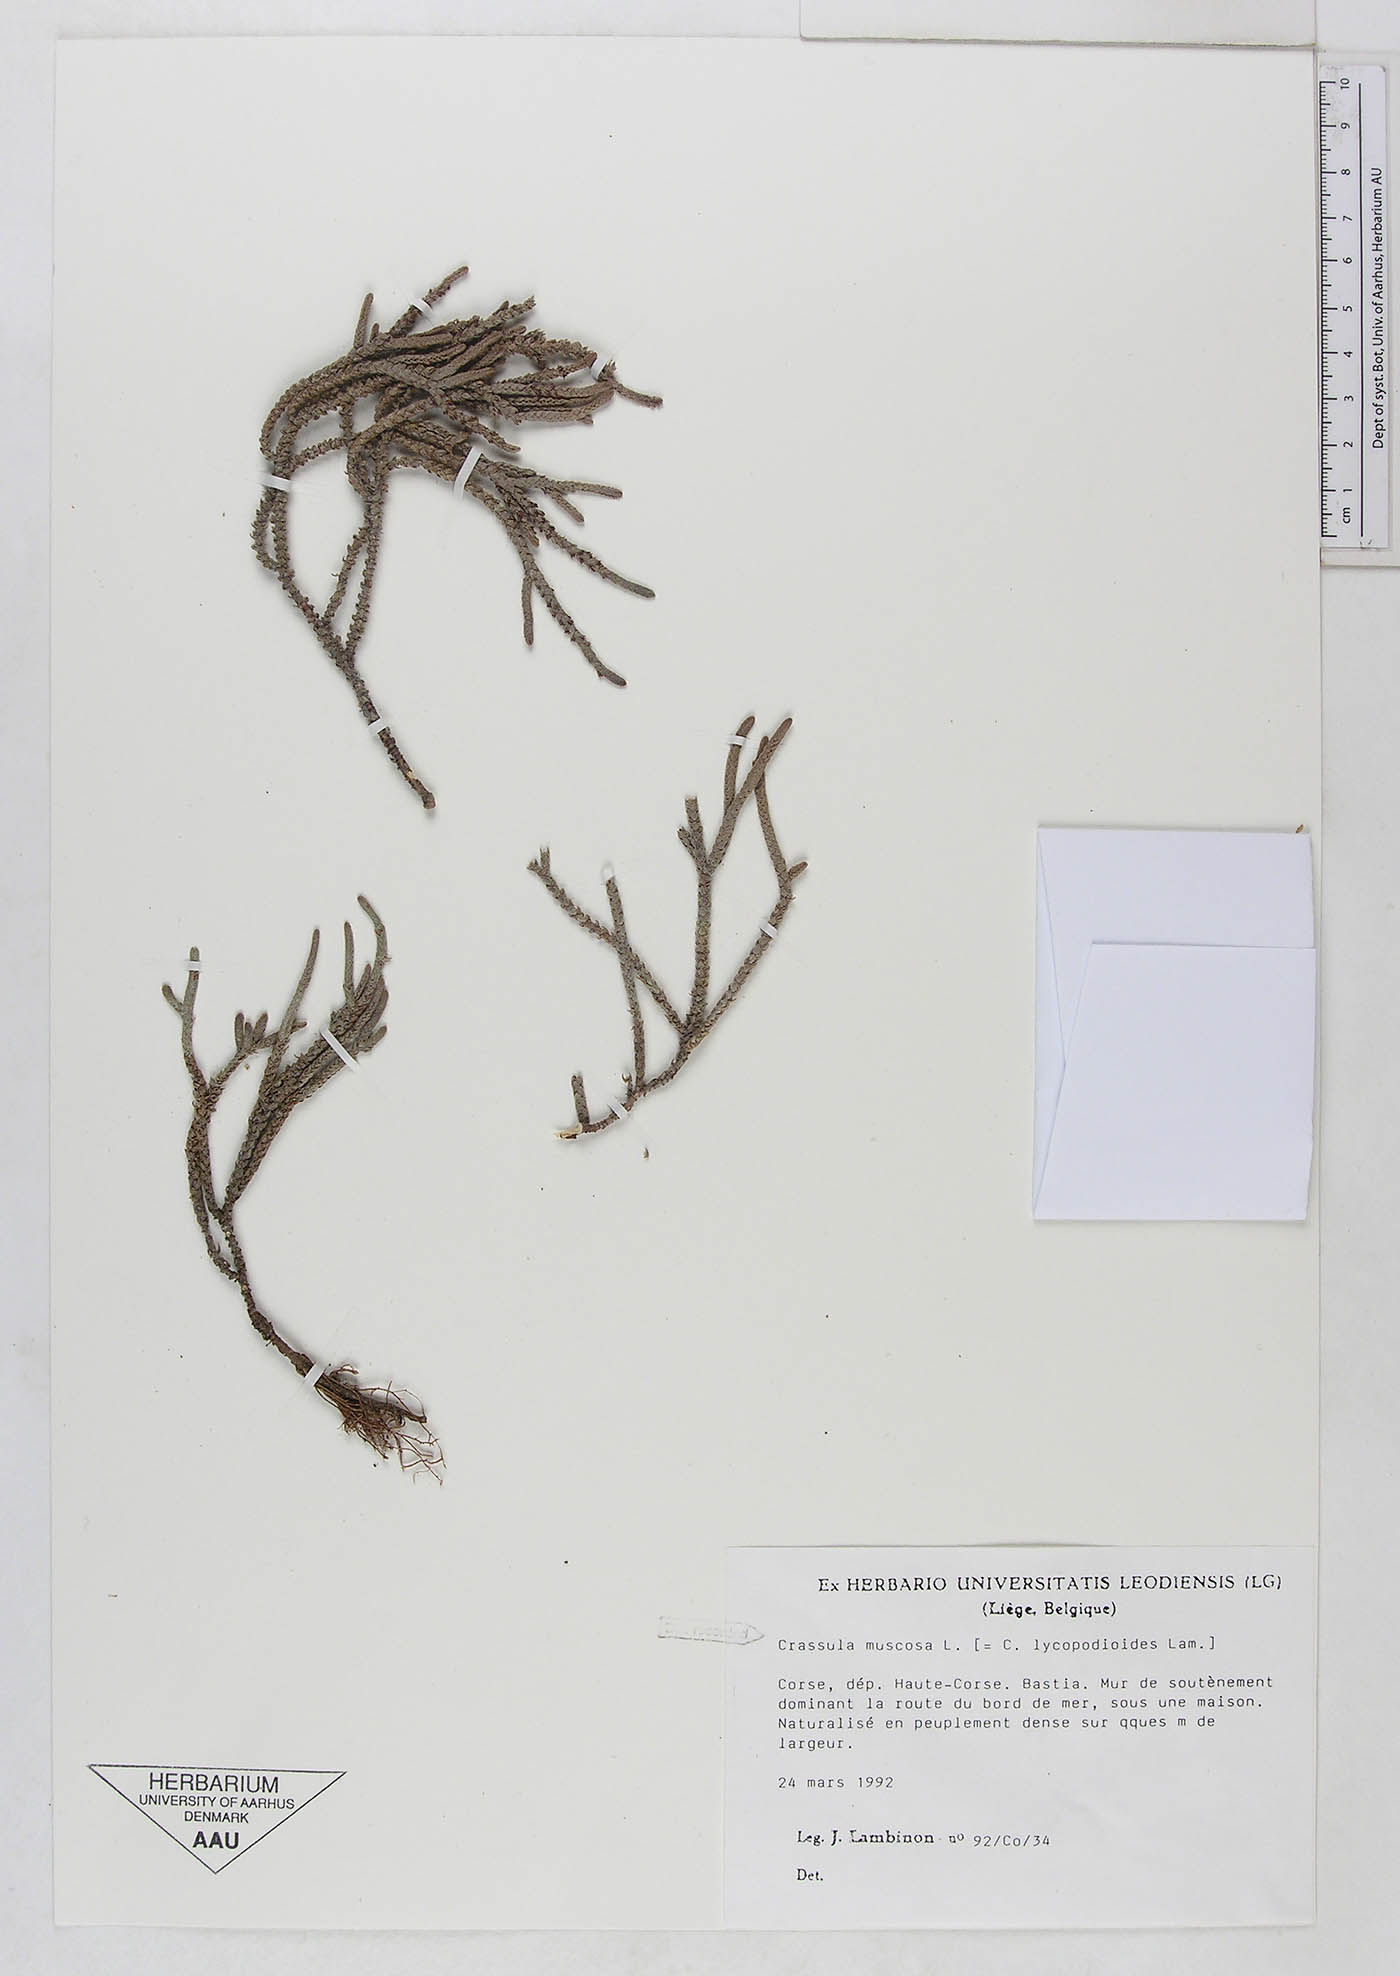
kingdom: Plantae
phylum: Tracheophyta
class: Magnoliopsida
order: Saxifragales
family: Crassulaceae
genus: Crassula
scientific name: Crassula tillaea
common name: Mossy stonecrop
